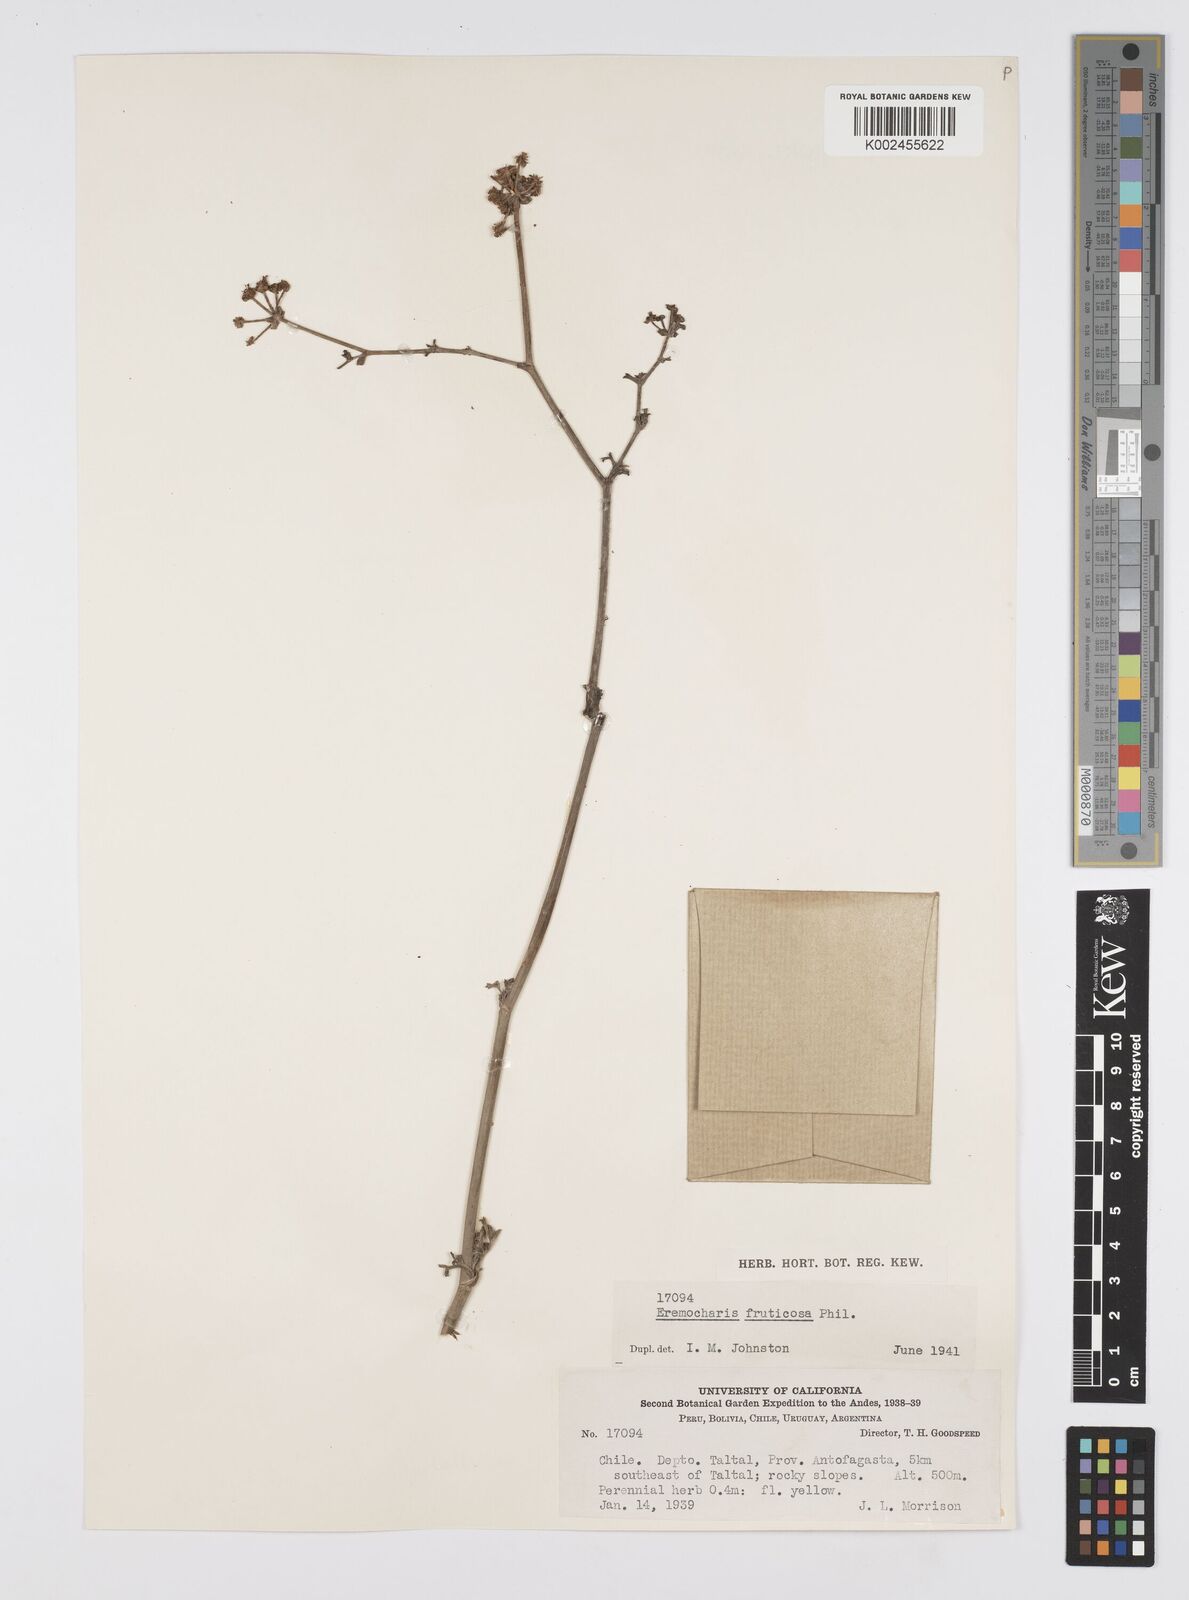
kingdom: Plantae
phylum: Tracheophyta
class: Magnoliopsida
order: Apiales
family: Apiaceae
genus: Eremocharis
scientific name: Eremocharis fruticosa
